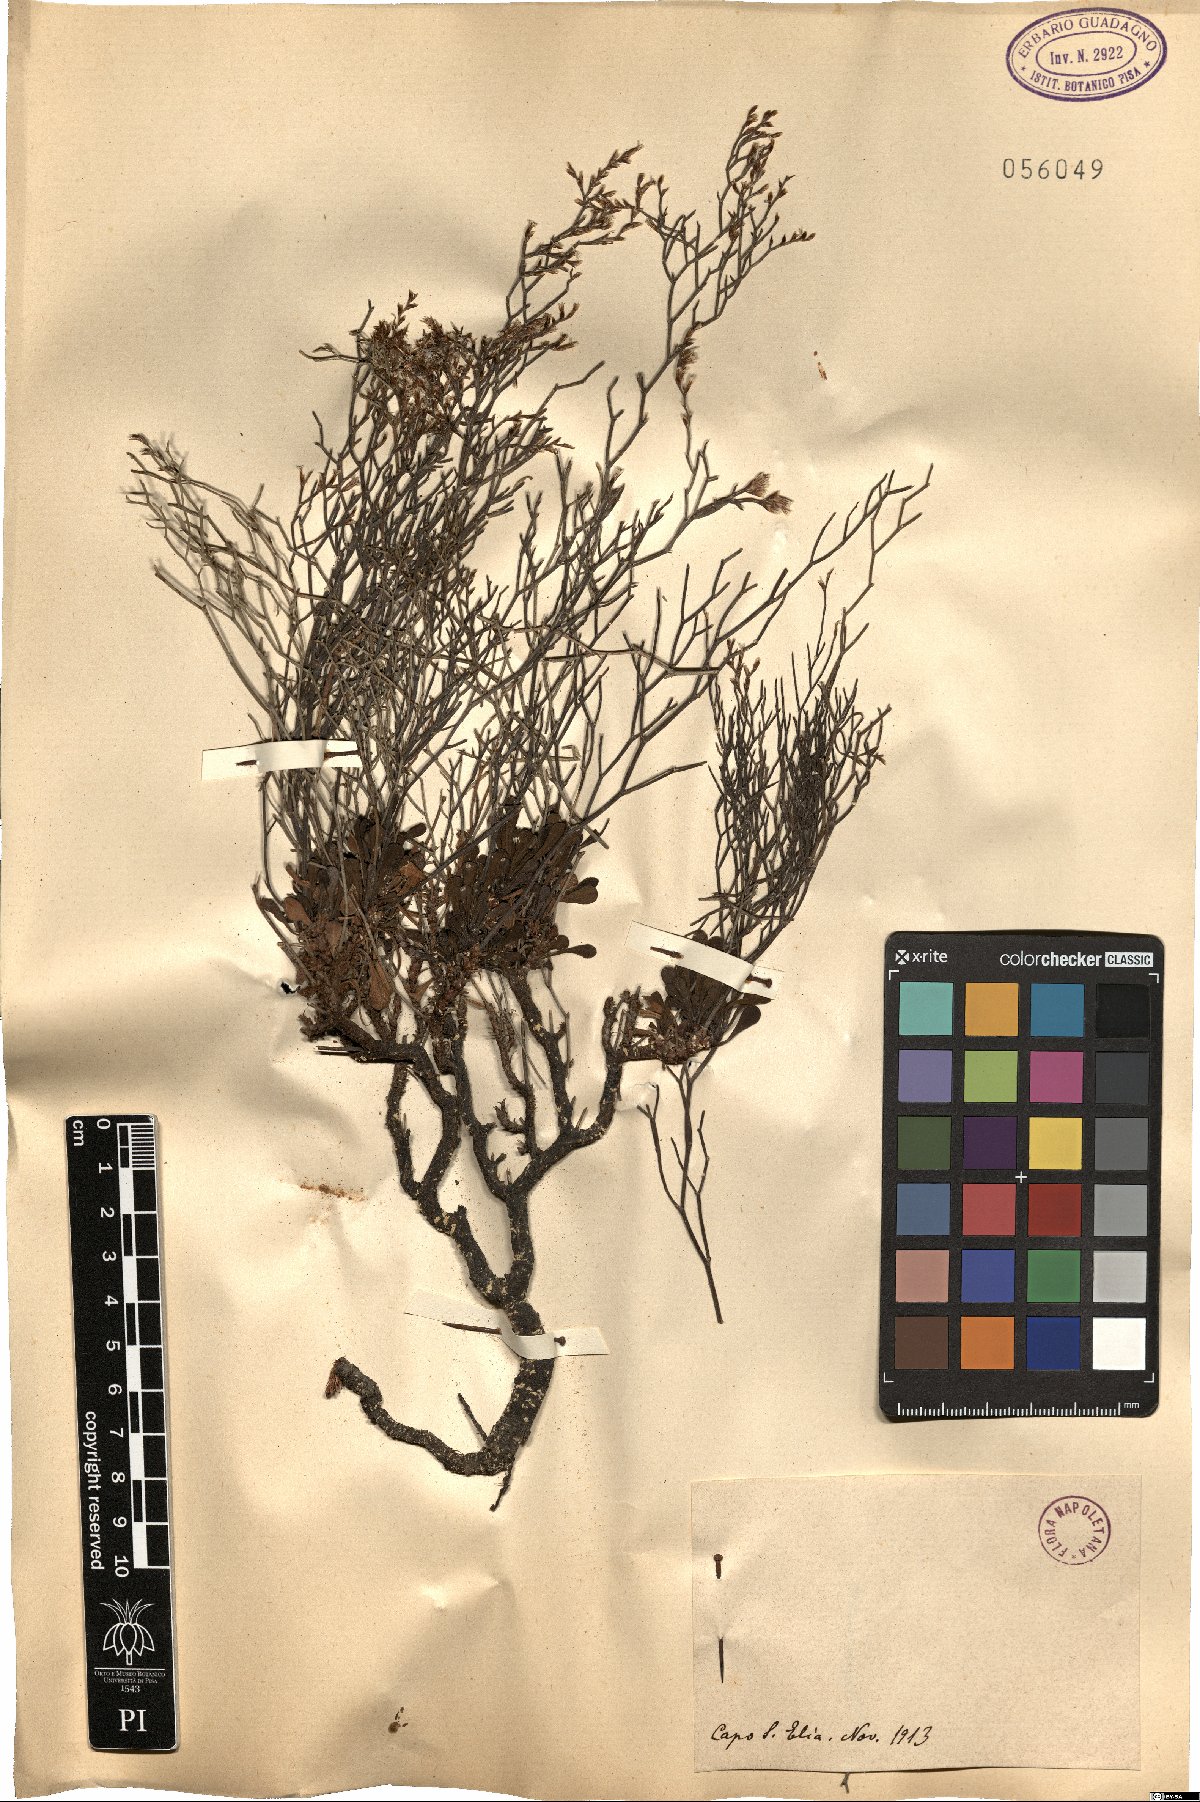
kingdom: Plantae
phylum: Tracheophyta
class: Magnoliopsida
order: Caryophyllales
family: Plumbaginaceae
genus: Armeria
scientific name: Armeria
